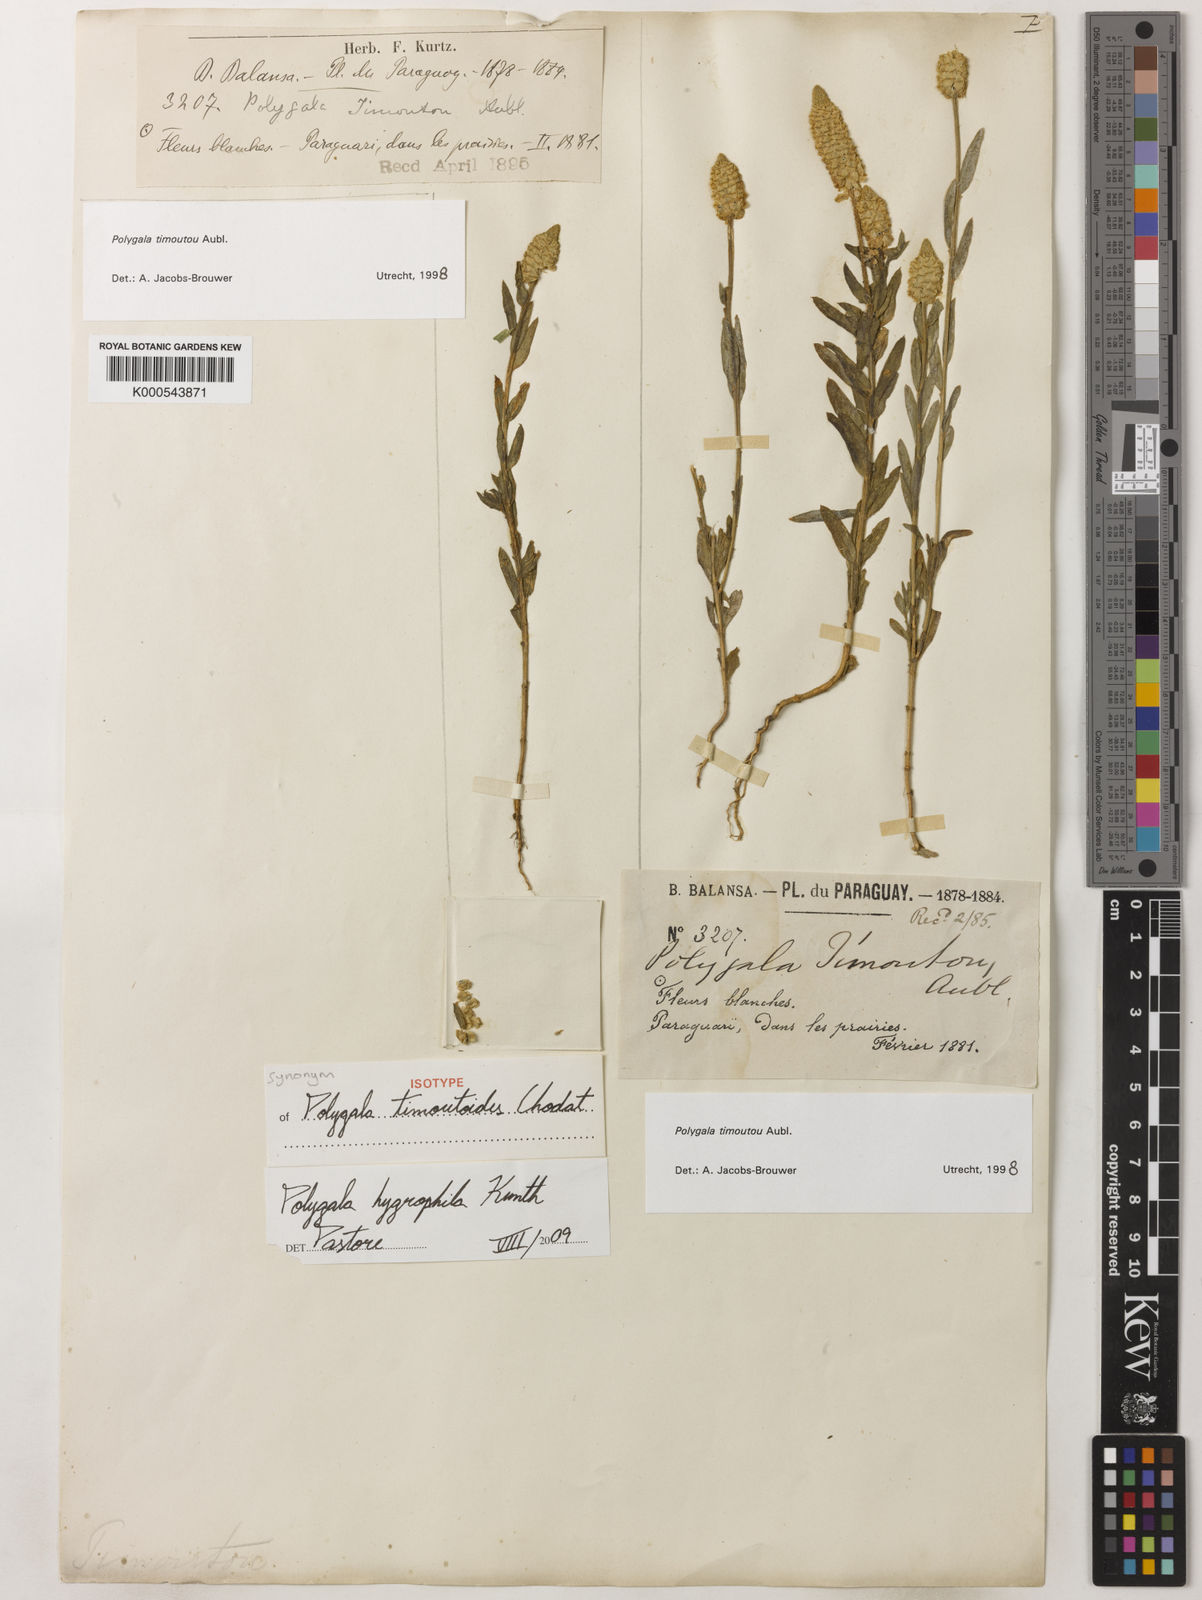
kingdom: Plantae
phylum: Tracheophyta
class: Magnoliopsida
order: Fabales
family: Polygalaceae
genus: Polygala
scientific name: Polygala hygrophila
